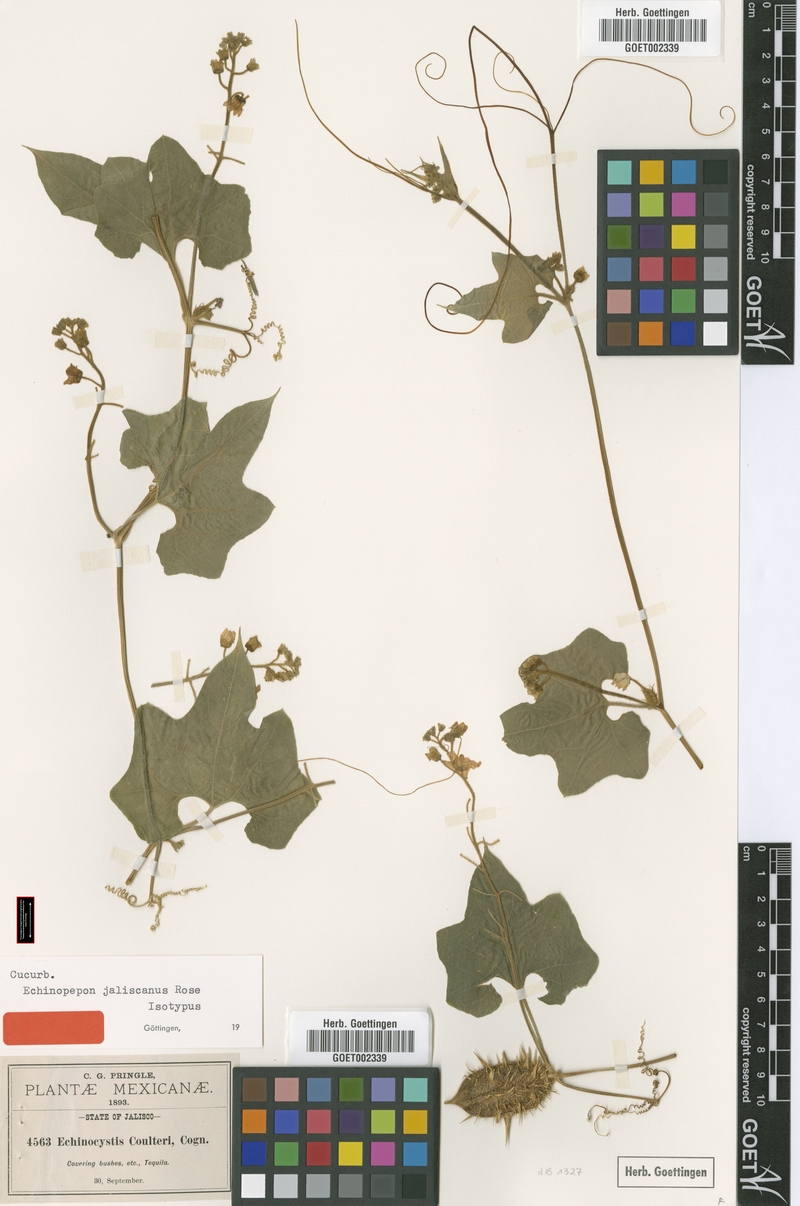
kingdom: Plantae
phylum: Tracheophyta
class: Magnoliopsida
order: Cucurbitales
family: Cucurbitaceae
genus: Echinopepon
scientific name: Echinopepon jaliscanus
